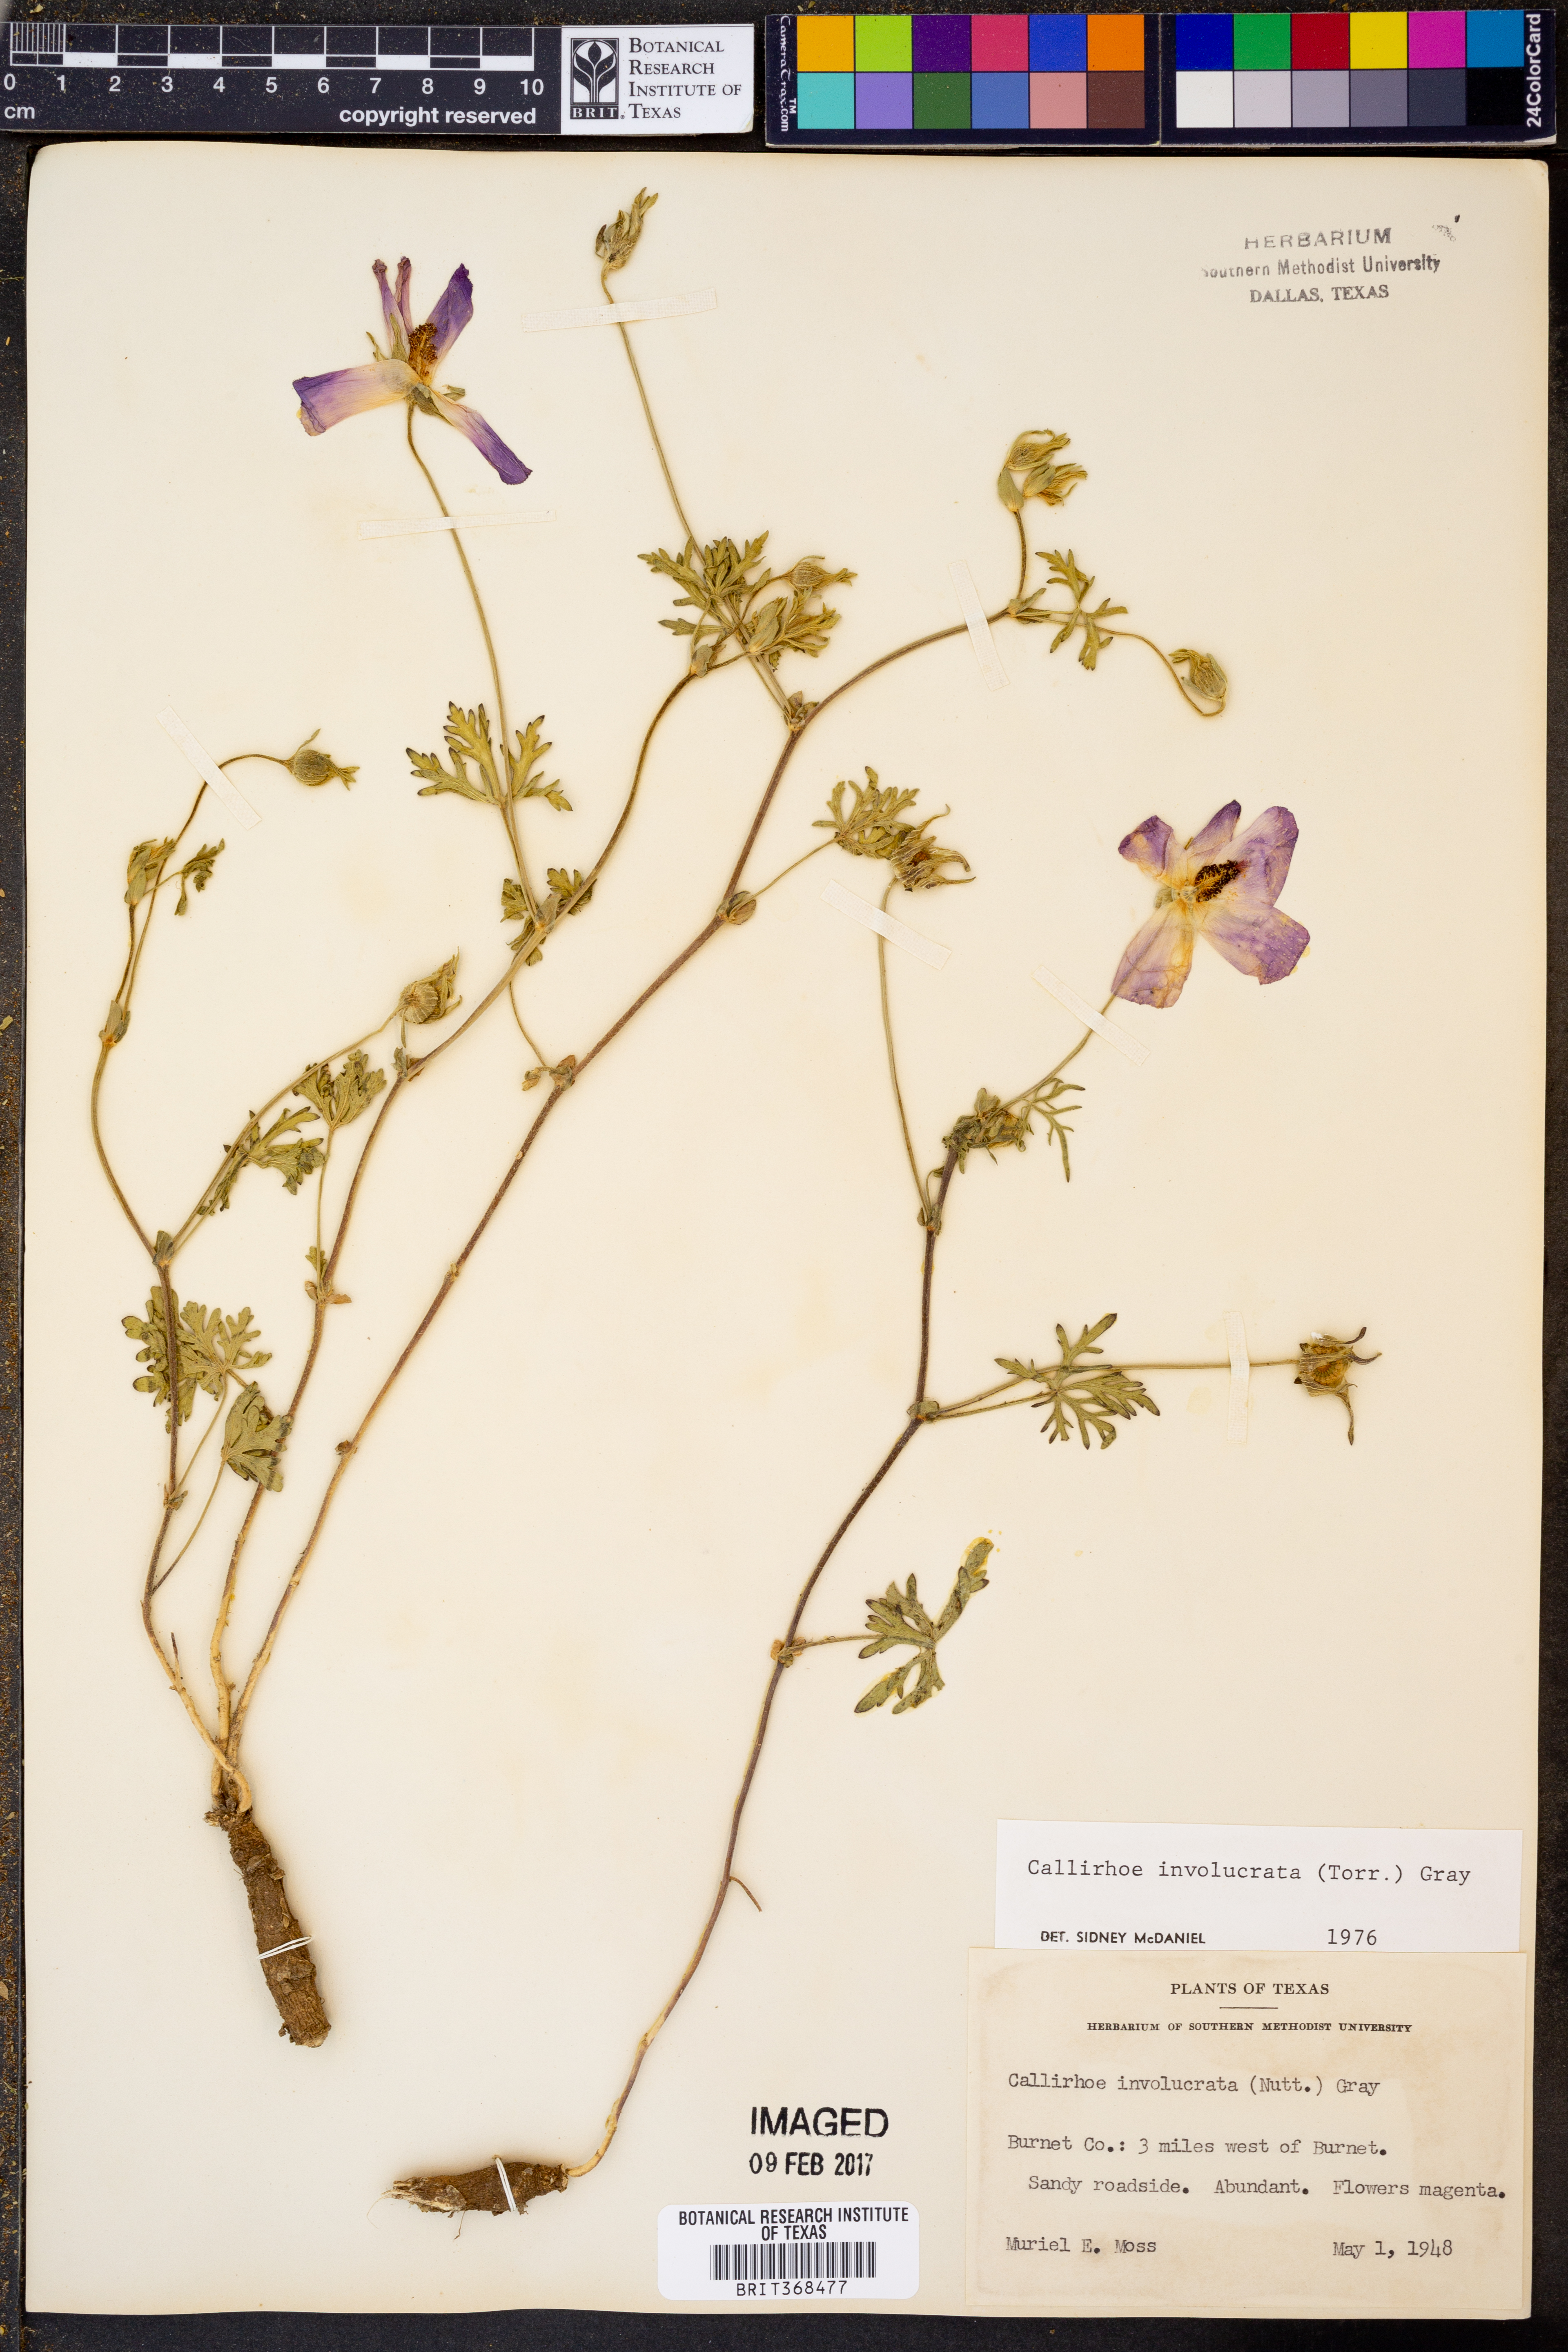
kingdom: Plantae
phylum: Tracheophyta
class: Magnoliopsida
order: Malvales
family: Malvaceae
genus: Callirhoe
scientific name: Callirhoe involucrata
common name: Purple poppy-mallow
